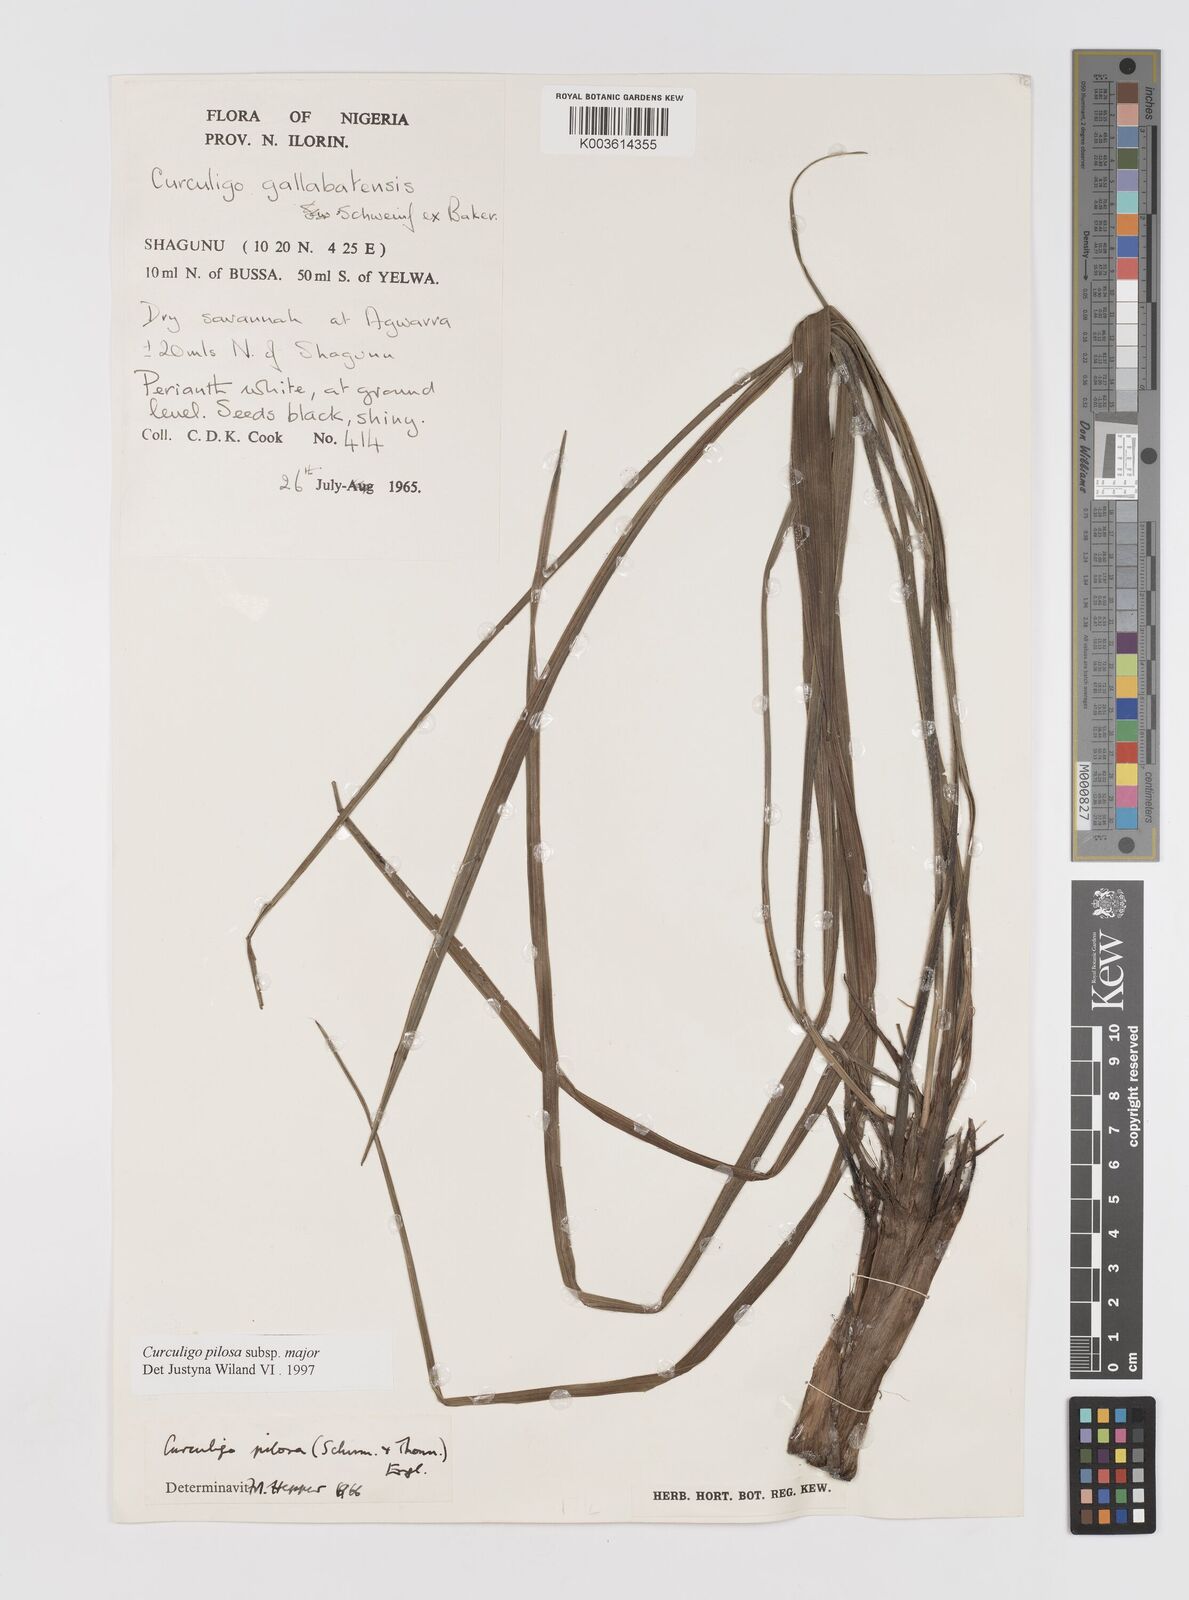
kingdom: Plantae
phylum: Tracheophyta
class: Liliopsida
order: Asparagales
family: Hypoxidaceae
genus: Curculigo
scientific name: Curculigo pilosa
